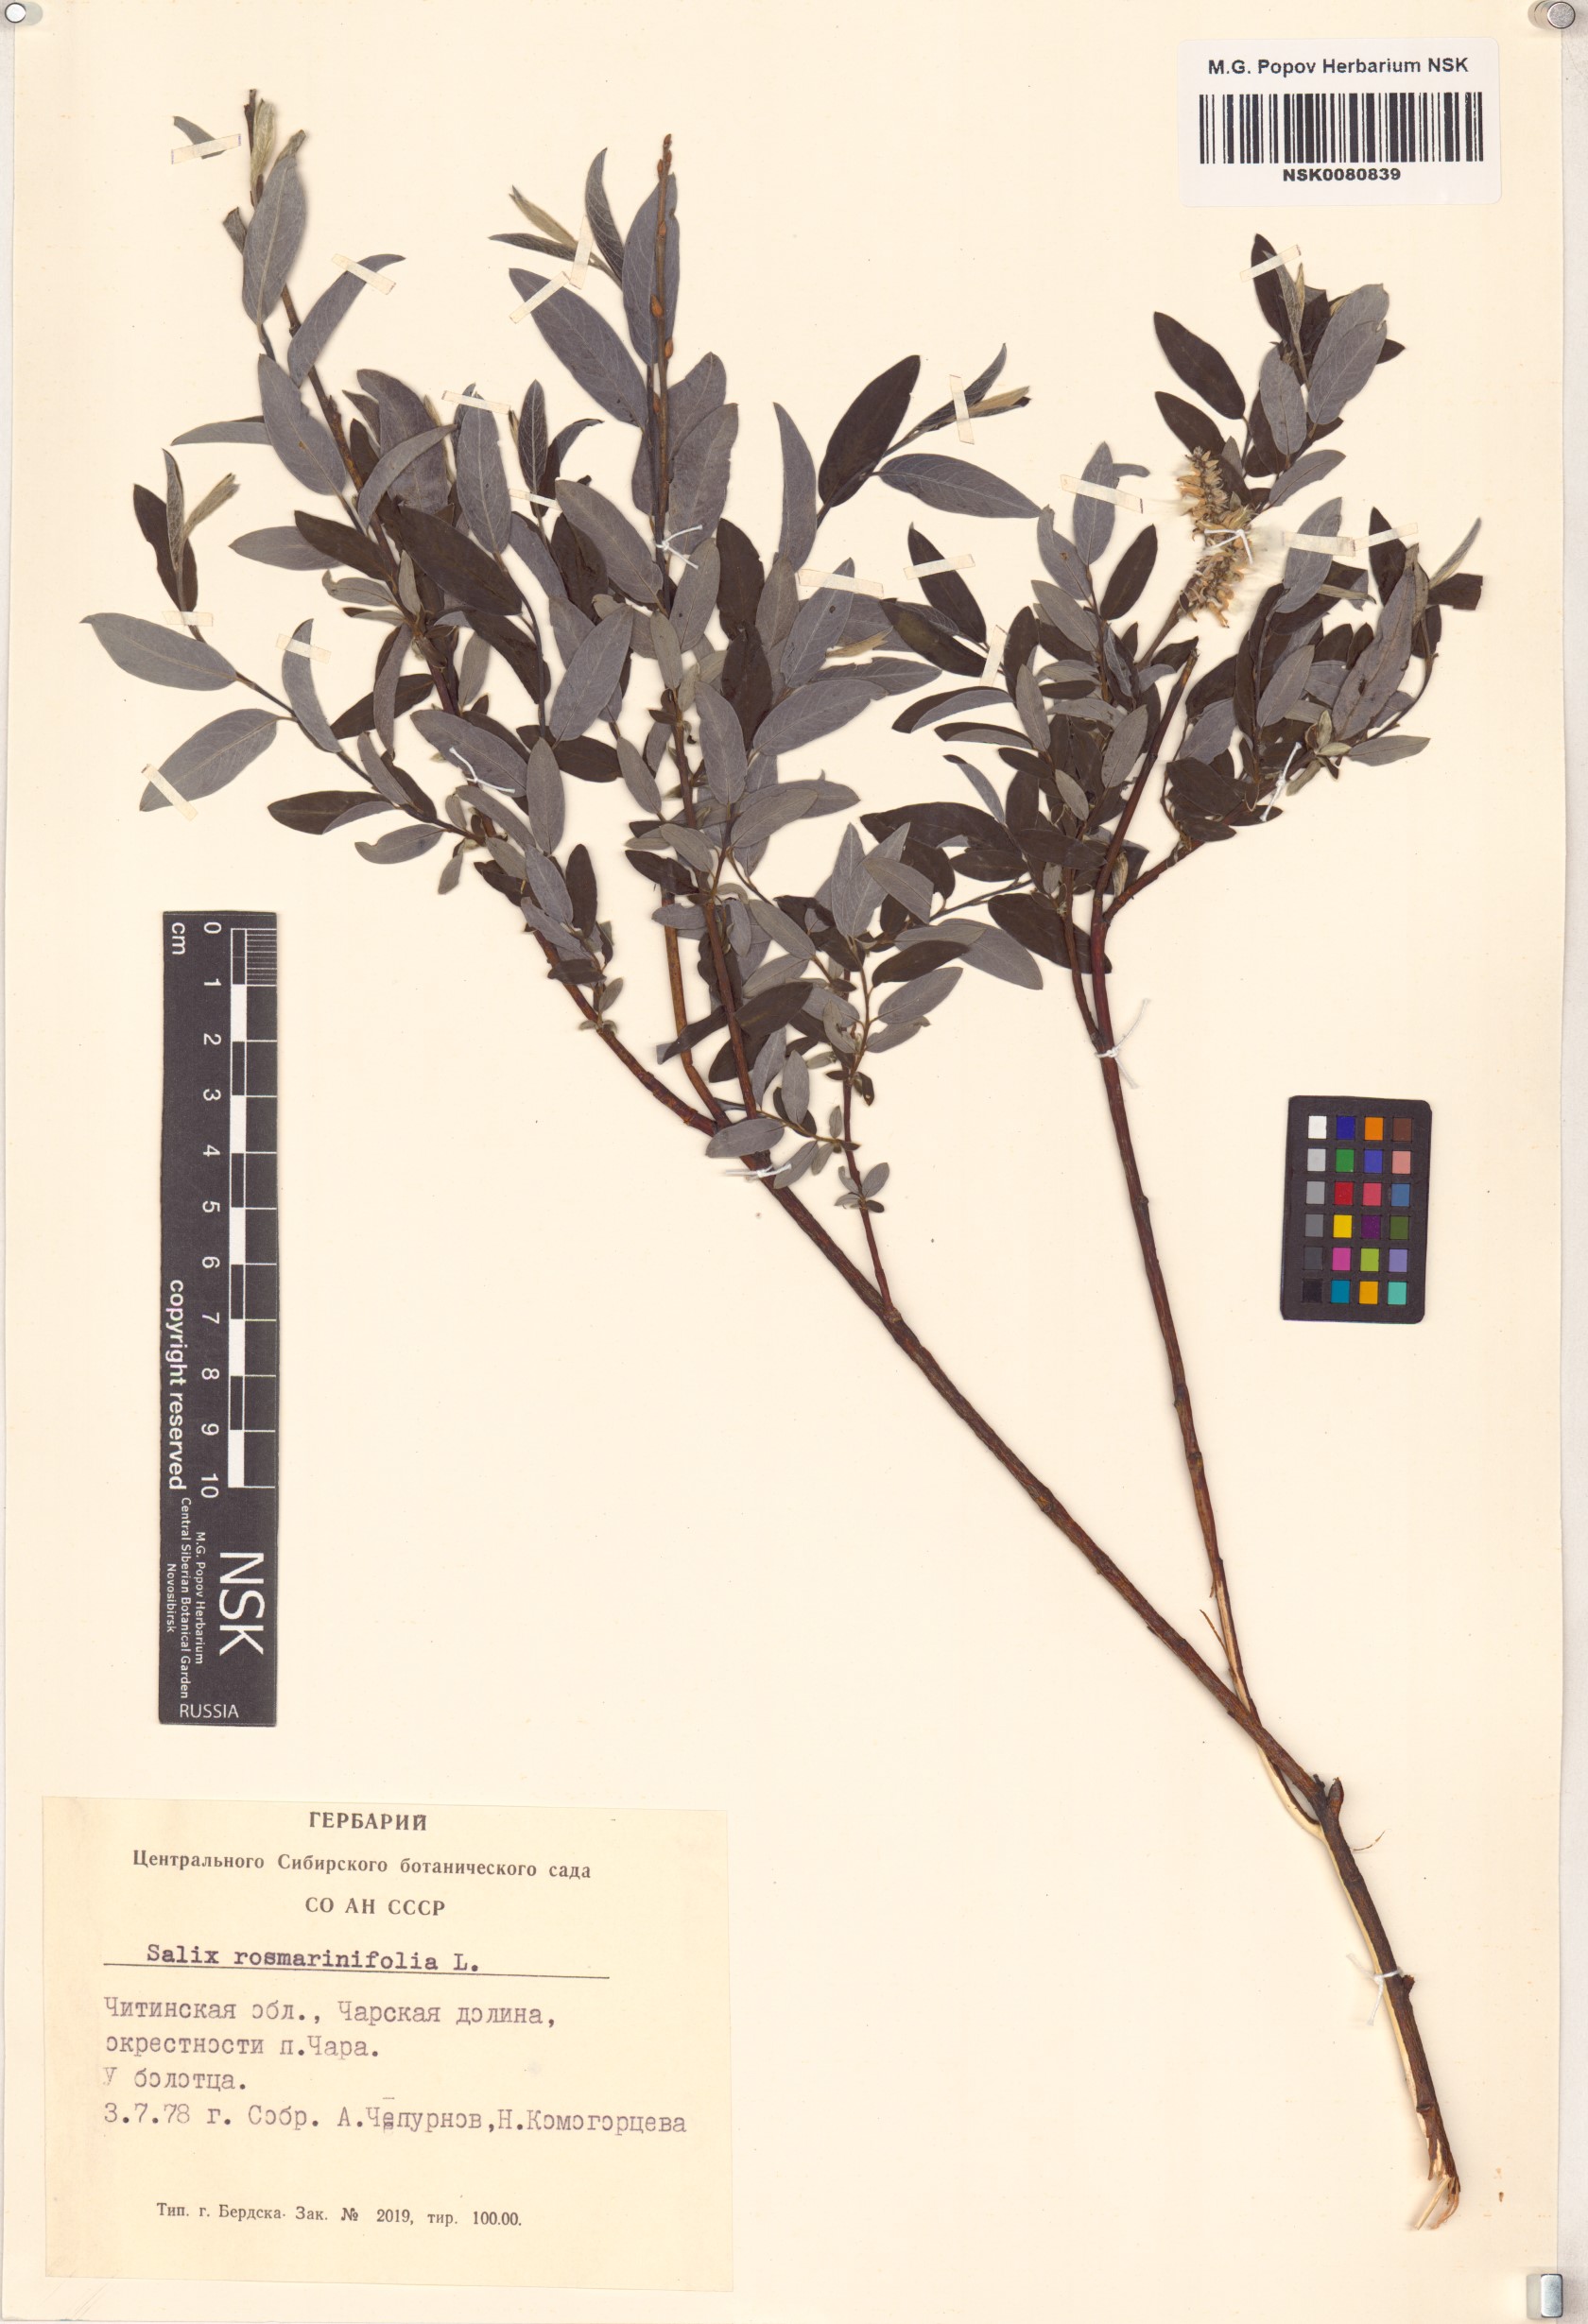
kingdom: Plantae
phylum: Tracheophyta
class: Magnoliopsida
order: Malpighiales
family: Salicaceae
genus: Salix
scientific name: Salix rosmarinifolia
